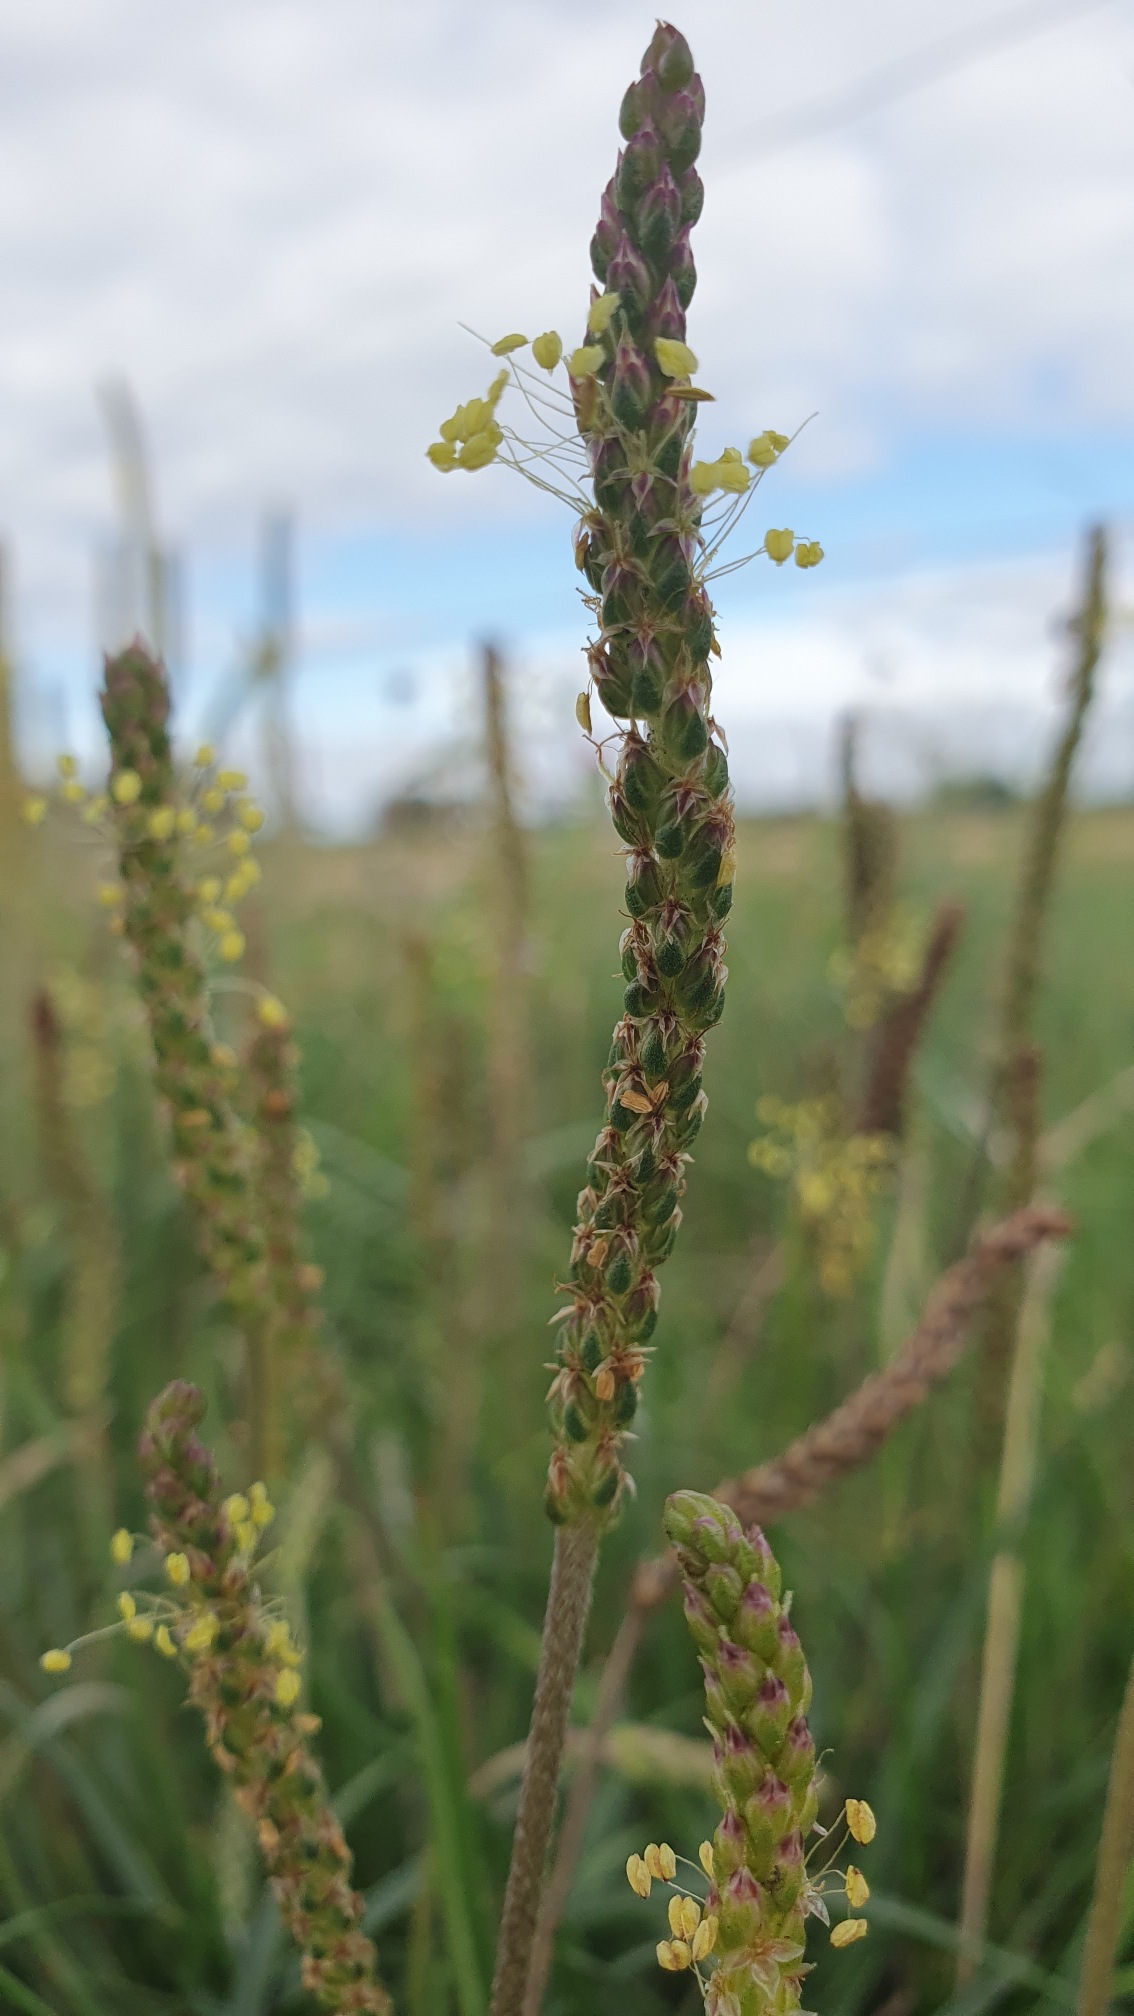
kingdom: Plantae
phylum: Tracheophyta
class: Magnoliopsida
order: Lamiales
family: Plantaginaceae
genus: Plantago
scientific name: Plantago maritima
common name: Strand-vejbred
